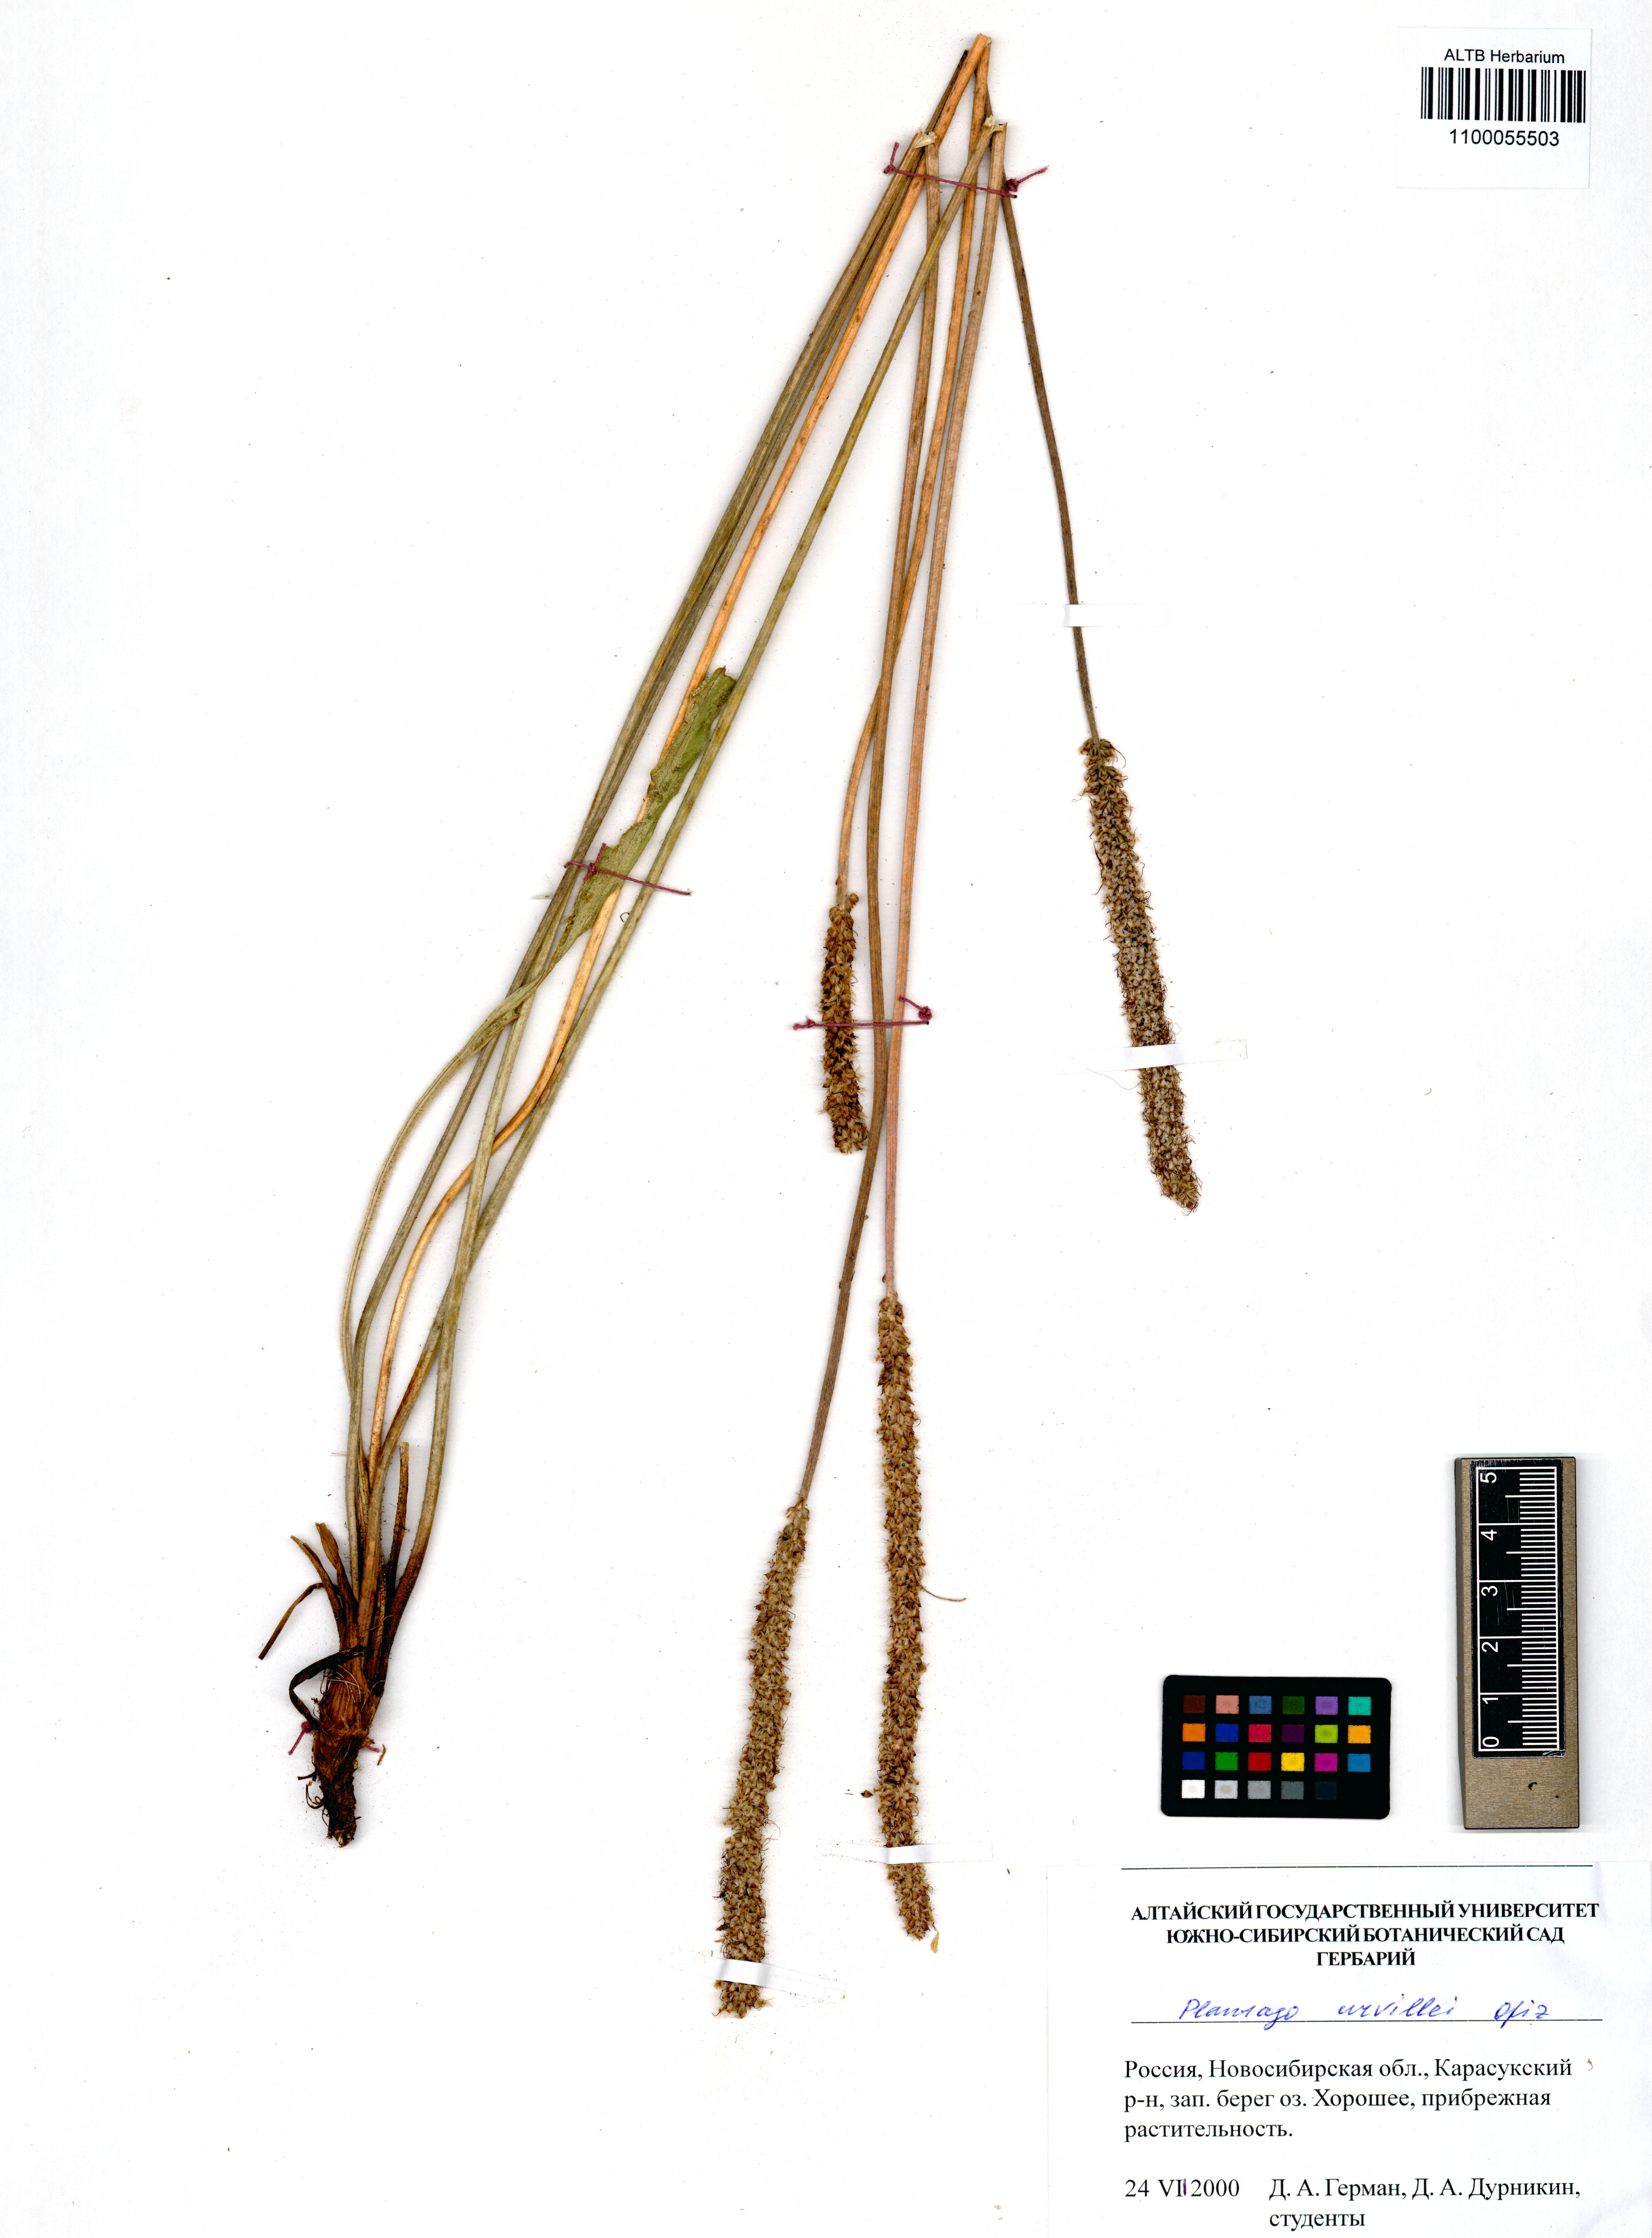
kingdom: Plantae
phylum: Tracheophyta
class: Magnoliopsida
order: Lamiales
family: Plantaginaceae
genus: Plantago
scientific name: Plantago urvillei
